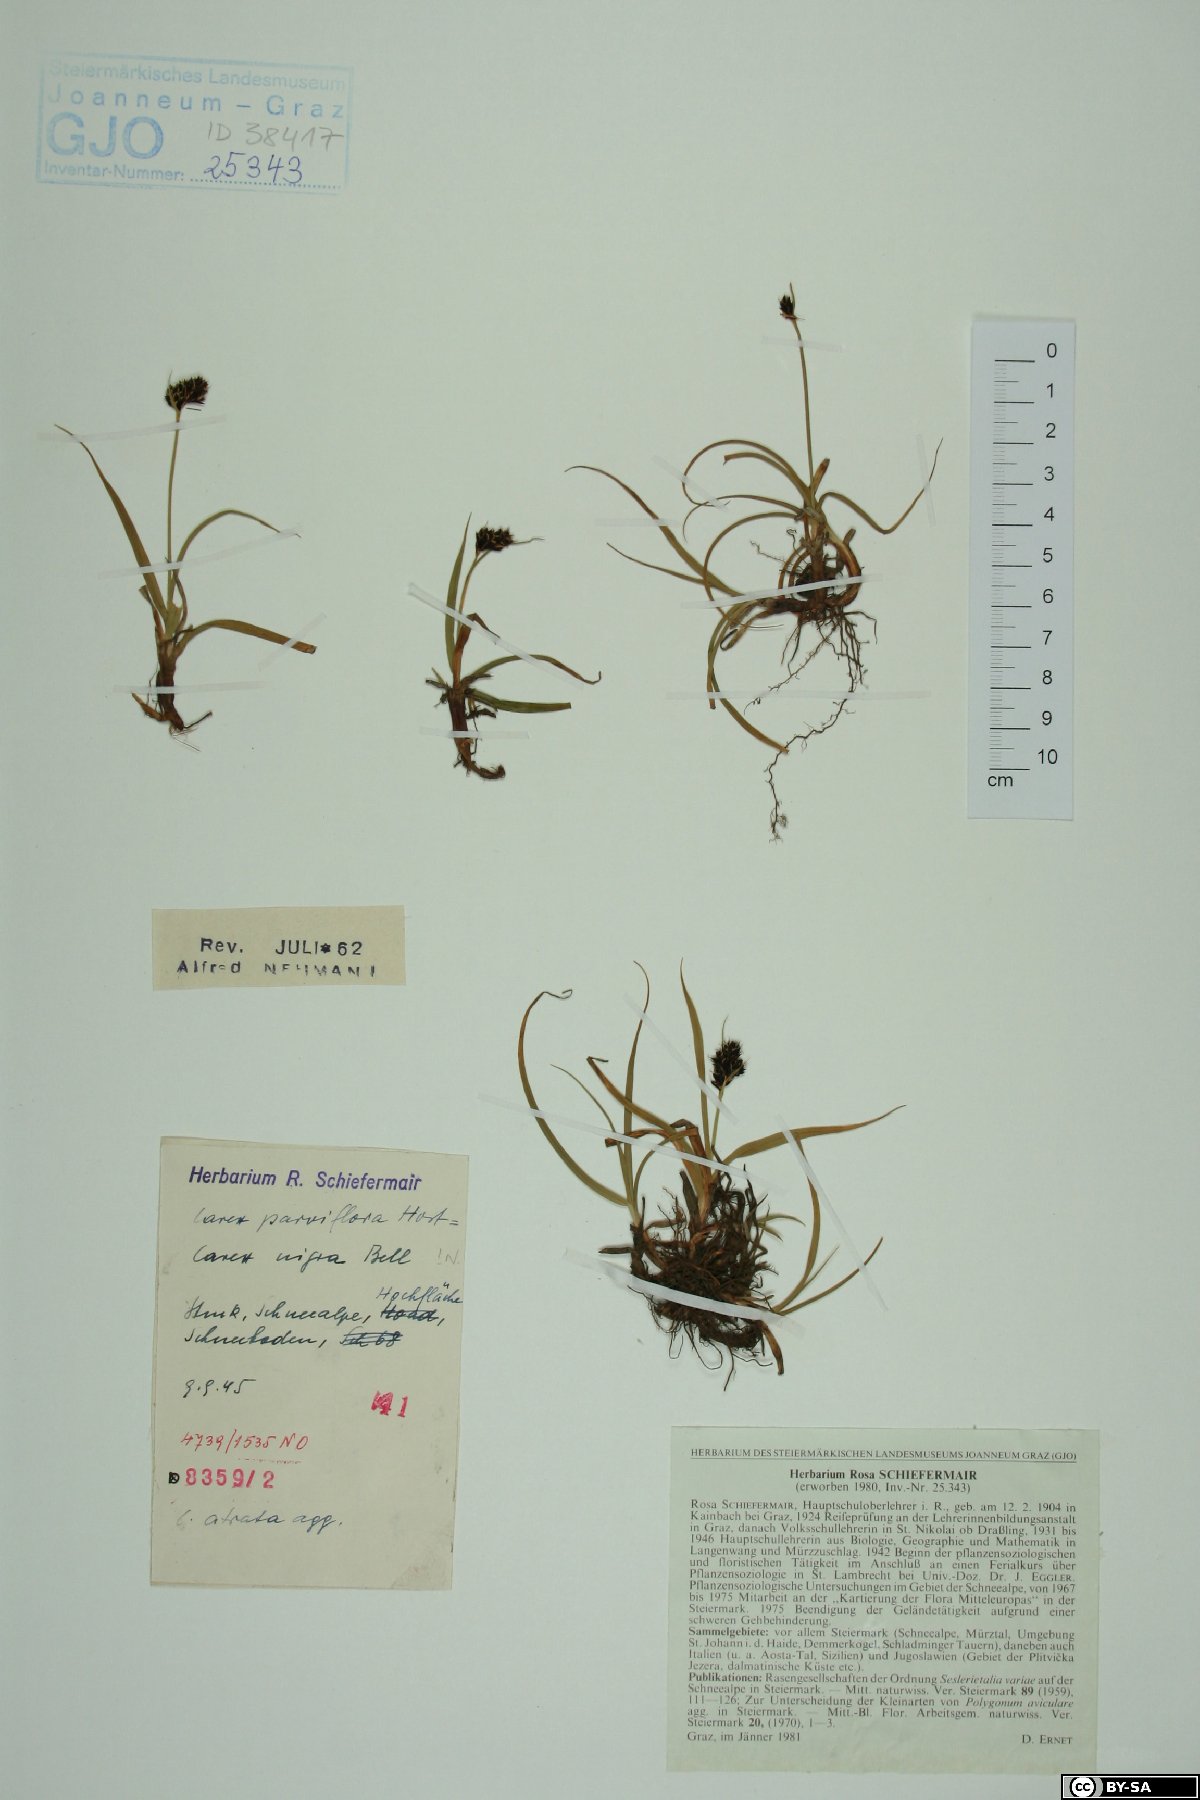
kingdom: Plantae
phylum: Tracheophyta
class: Liliopsida
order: Poales
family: Cyperaceae
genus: Carex
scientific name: Carex parviflora
